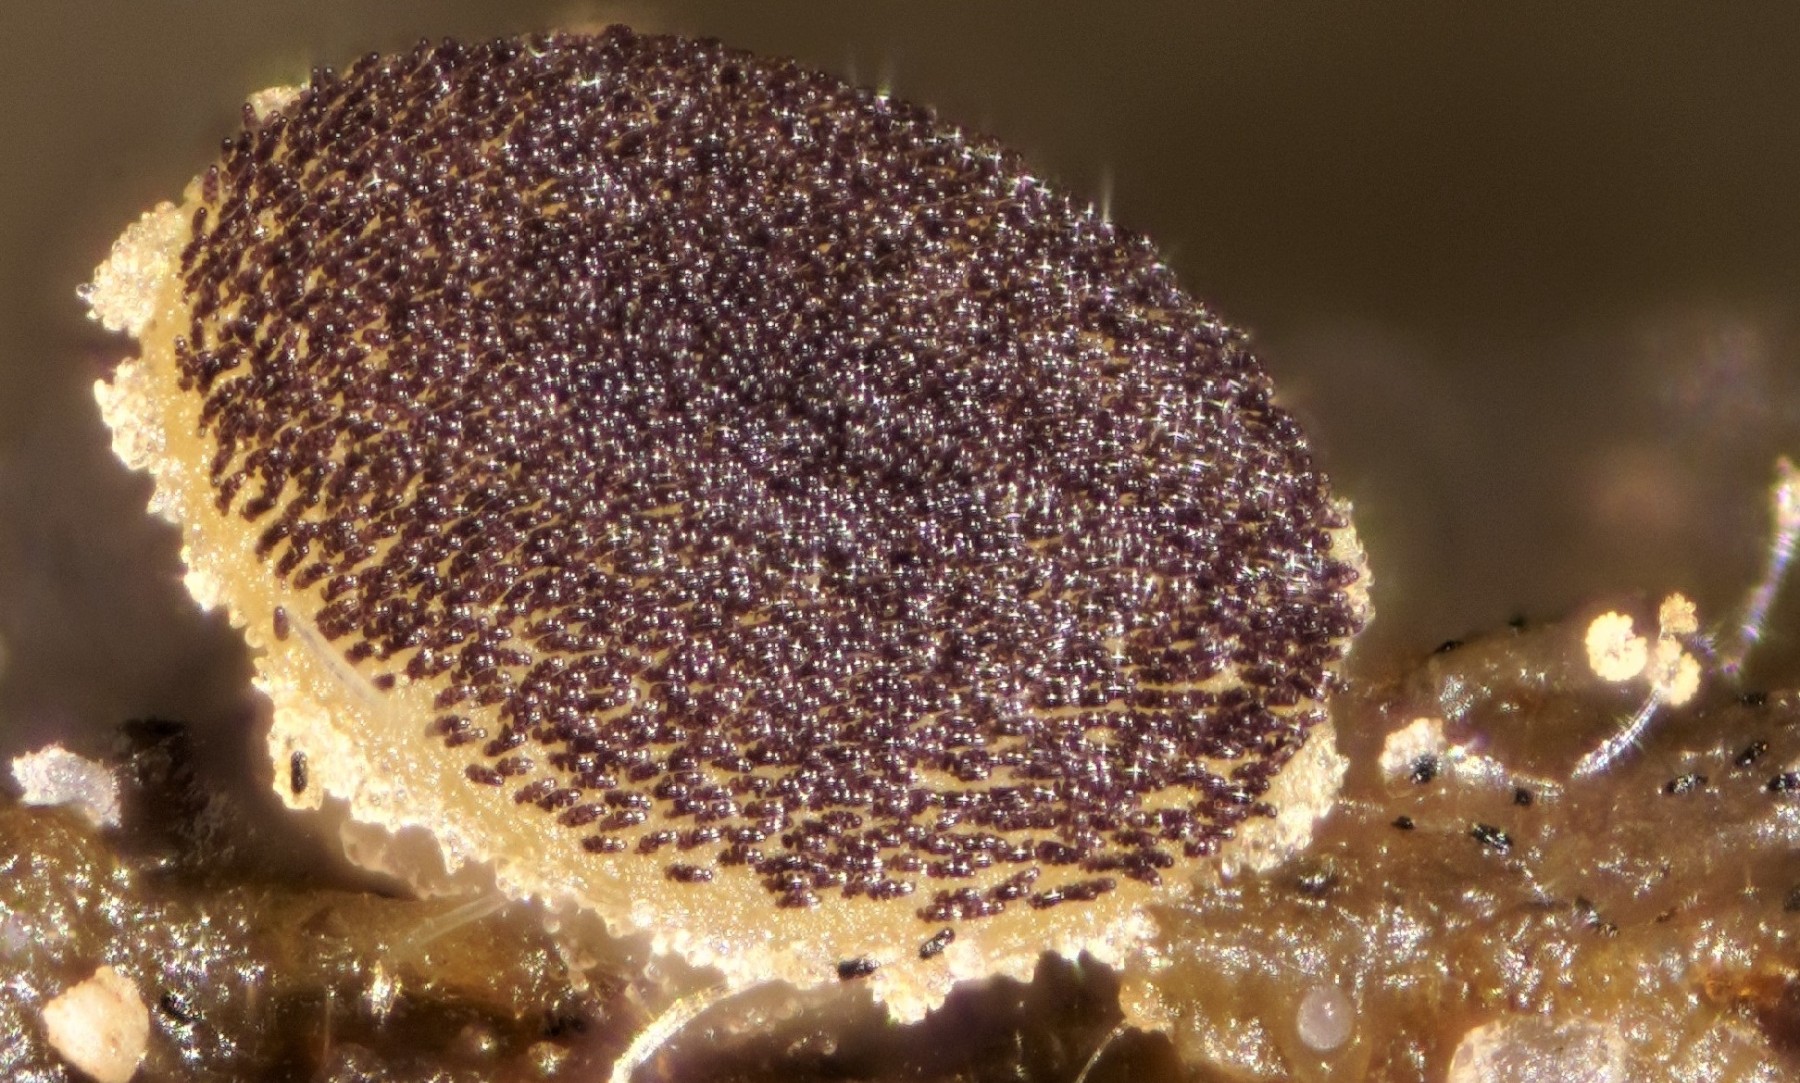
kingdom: Fungi
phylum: Ascomycota
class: Pezizomycetes
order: Pezizales
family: Ascobolaceae
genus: Ascobolus
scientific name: Ascobolus crenulatus
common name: gullig prikbæger
